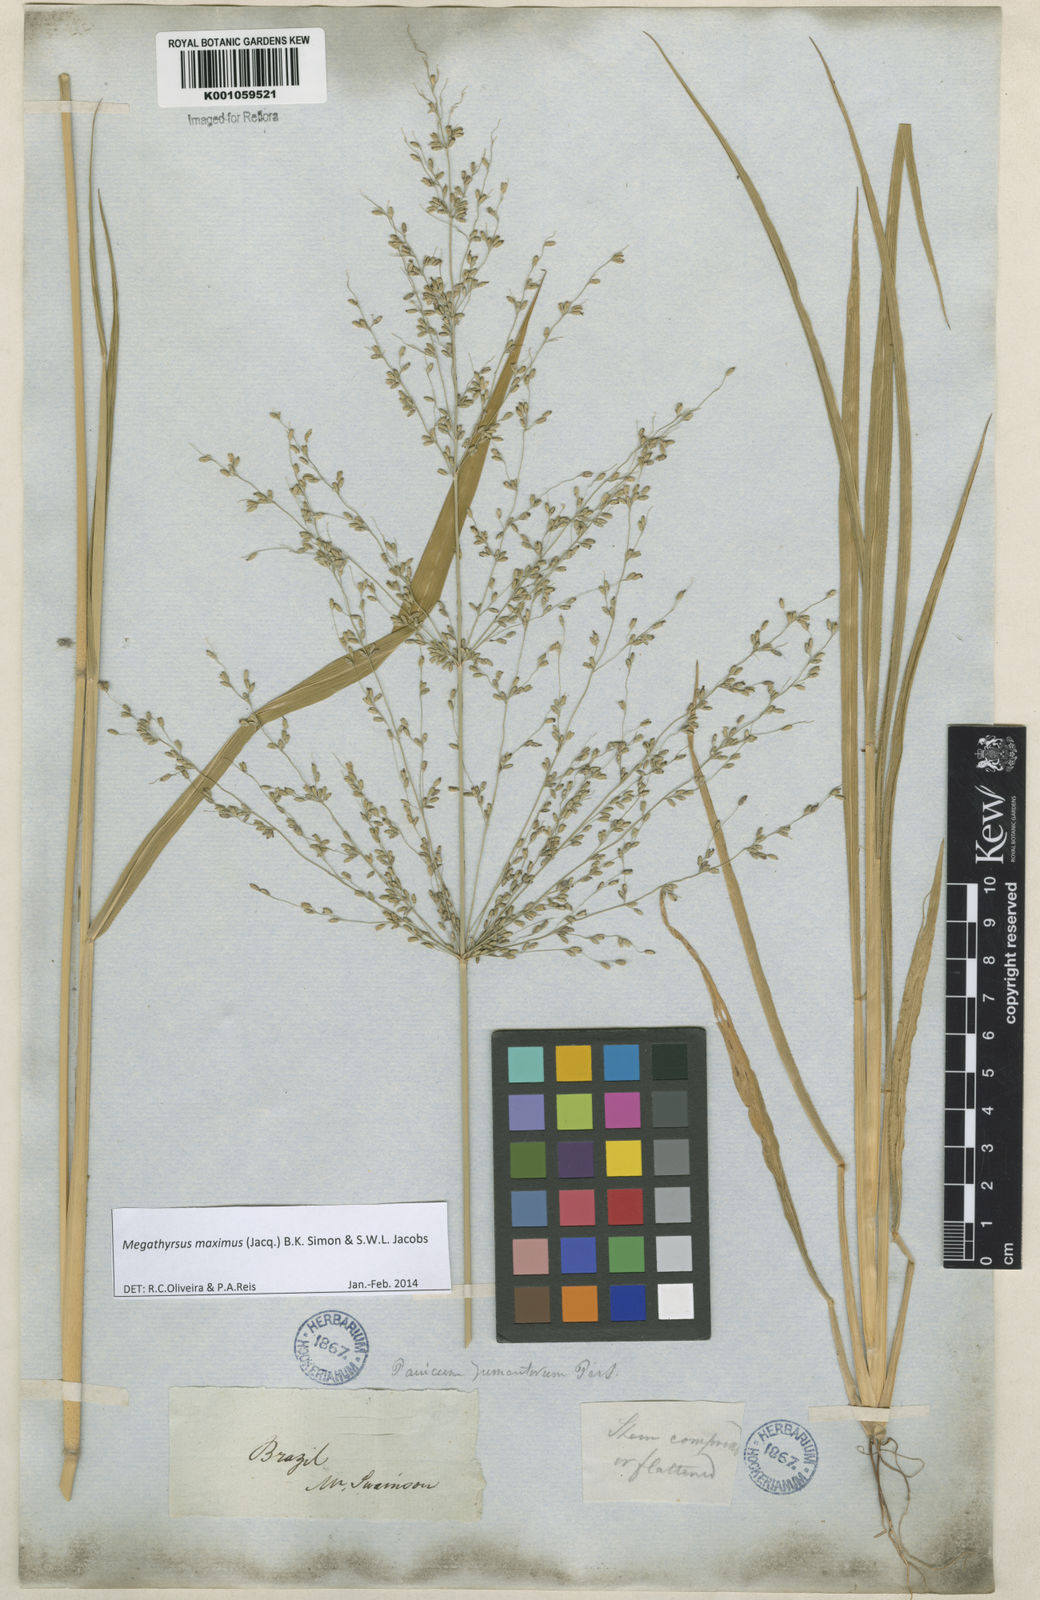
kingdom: Plantae
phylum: Tracheophyta
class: Liliopsida
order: Poales
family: Poaceae
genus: Megathyrsus
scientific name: Megathyrsus maximus
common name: Guineagrass
